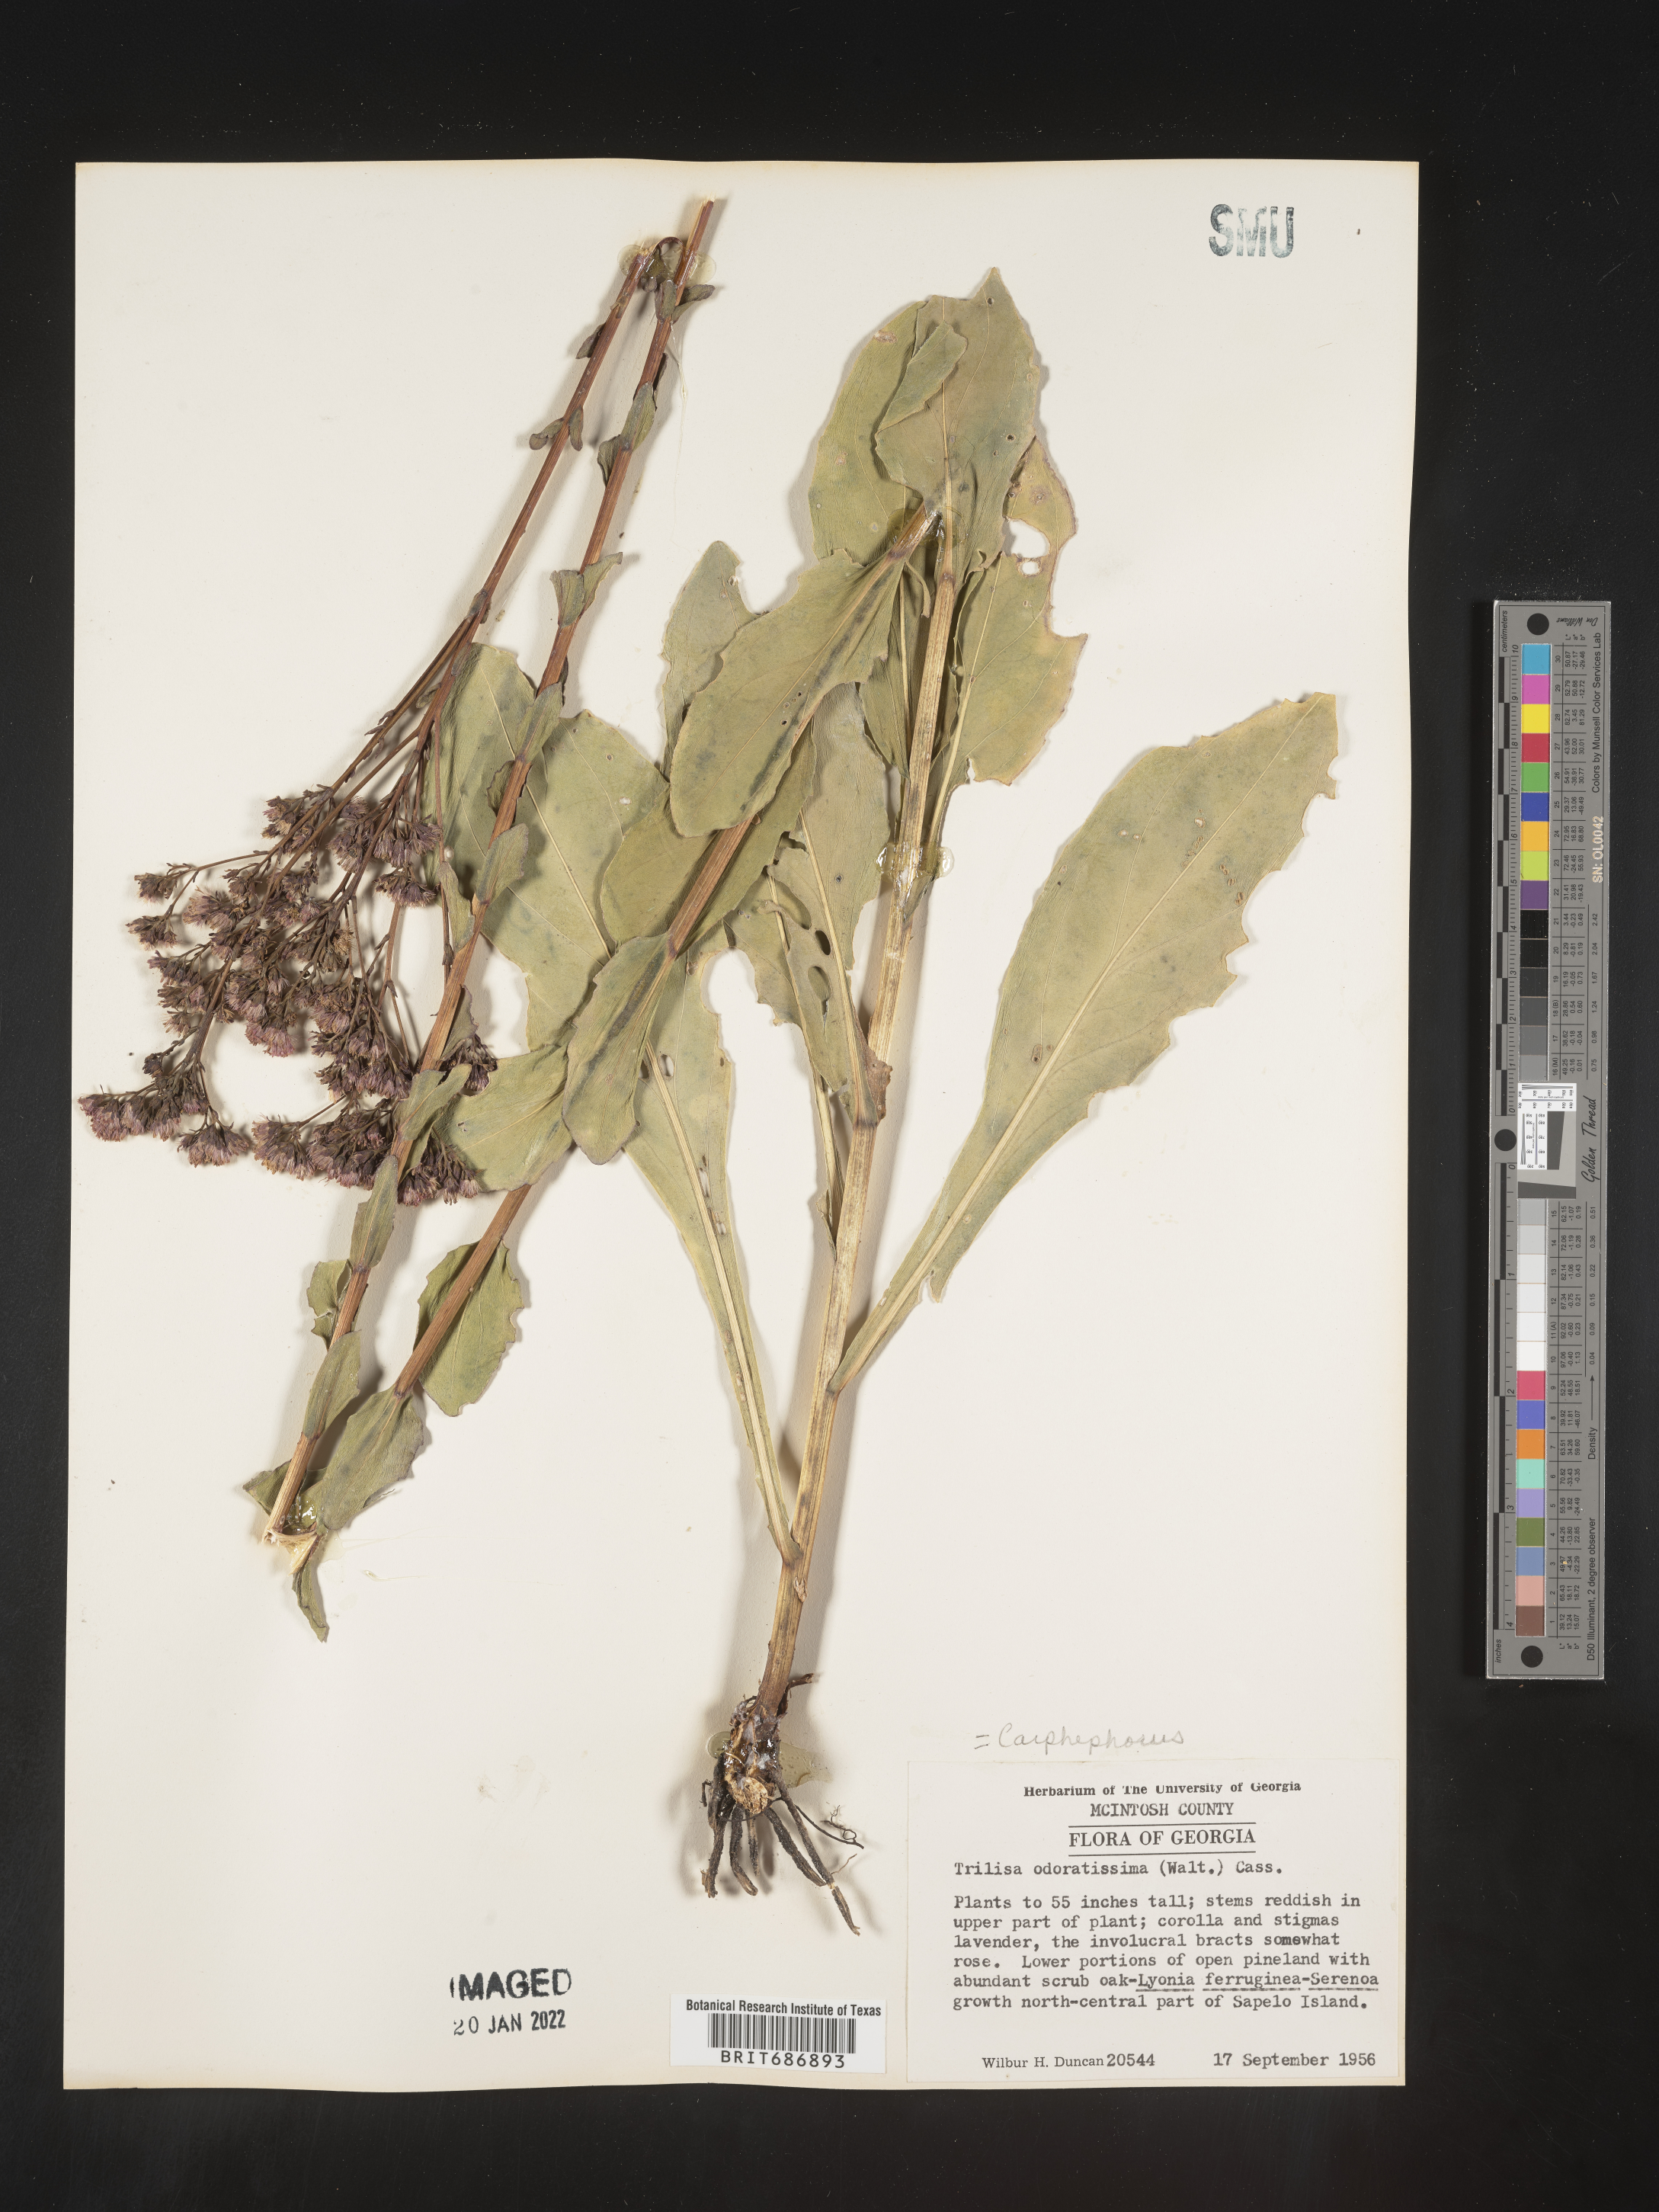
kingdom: Plantae
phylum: Tracheophyta
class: Magnoliopsida
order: Asterales
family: Asteraceae
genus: Carphephorus
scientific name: Carphephorus odoratissimus
